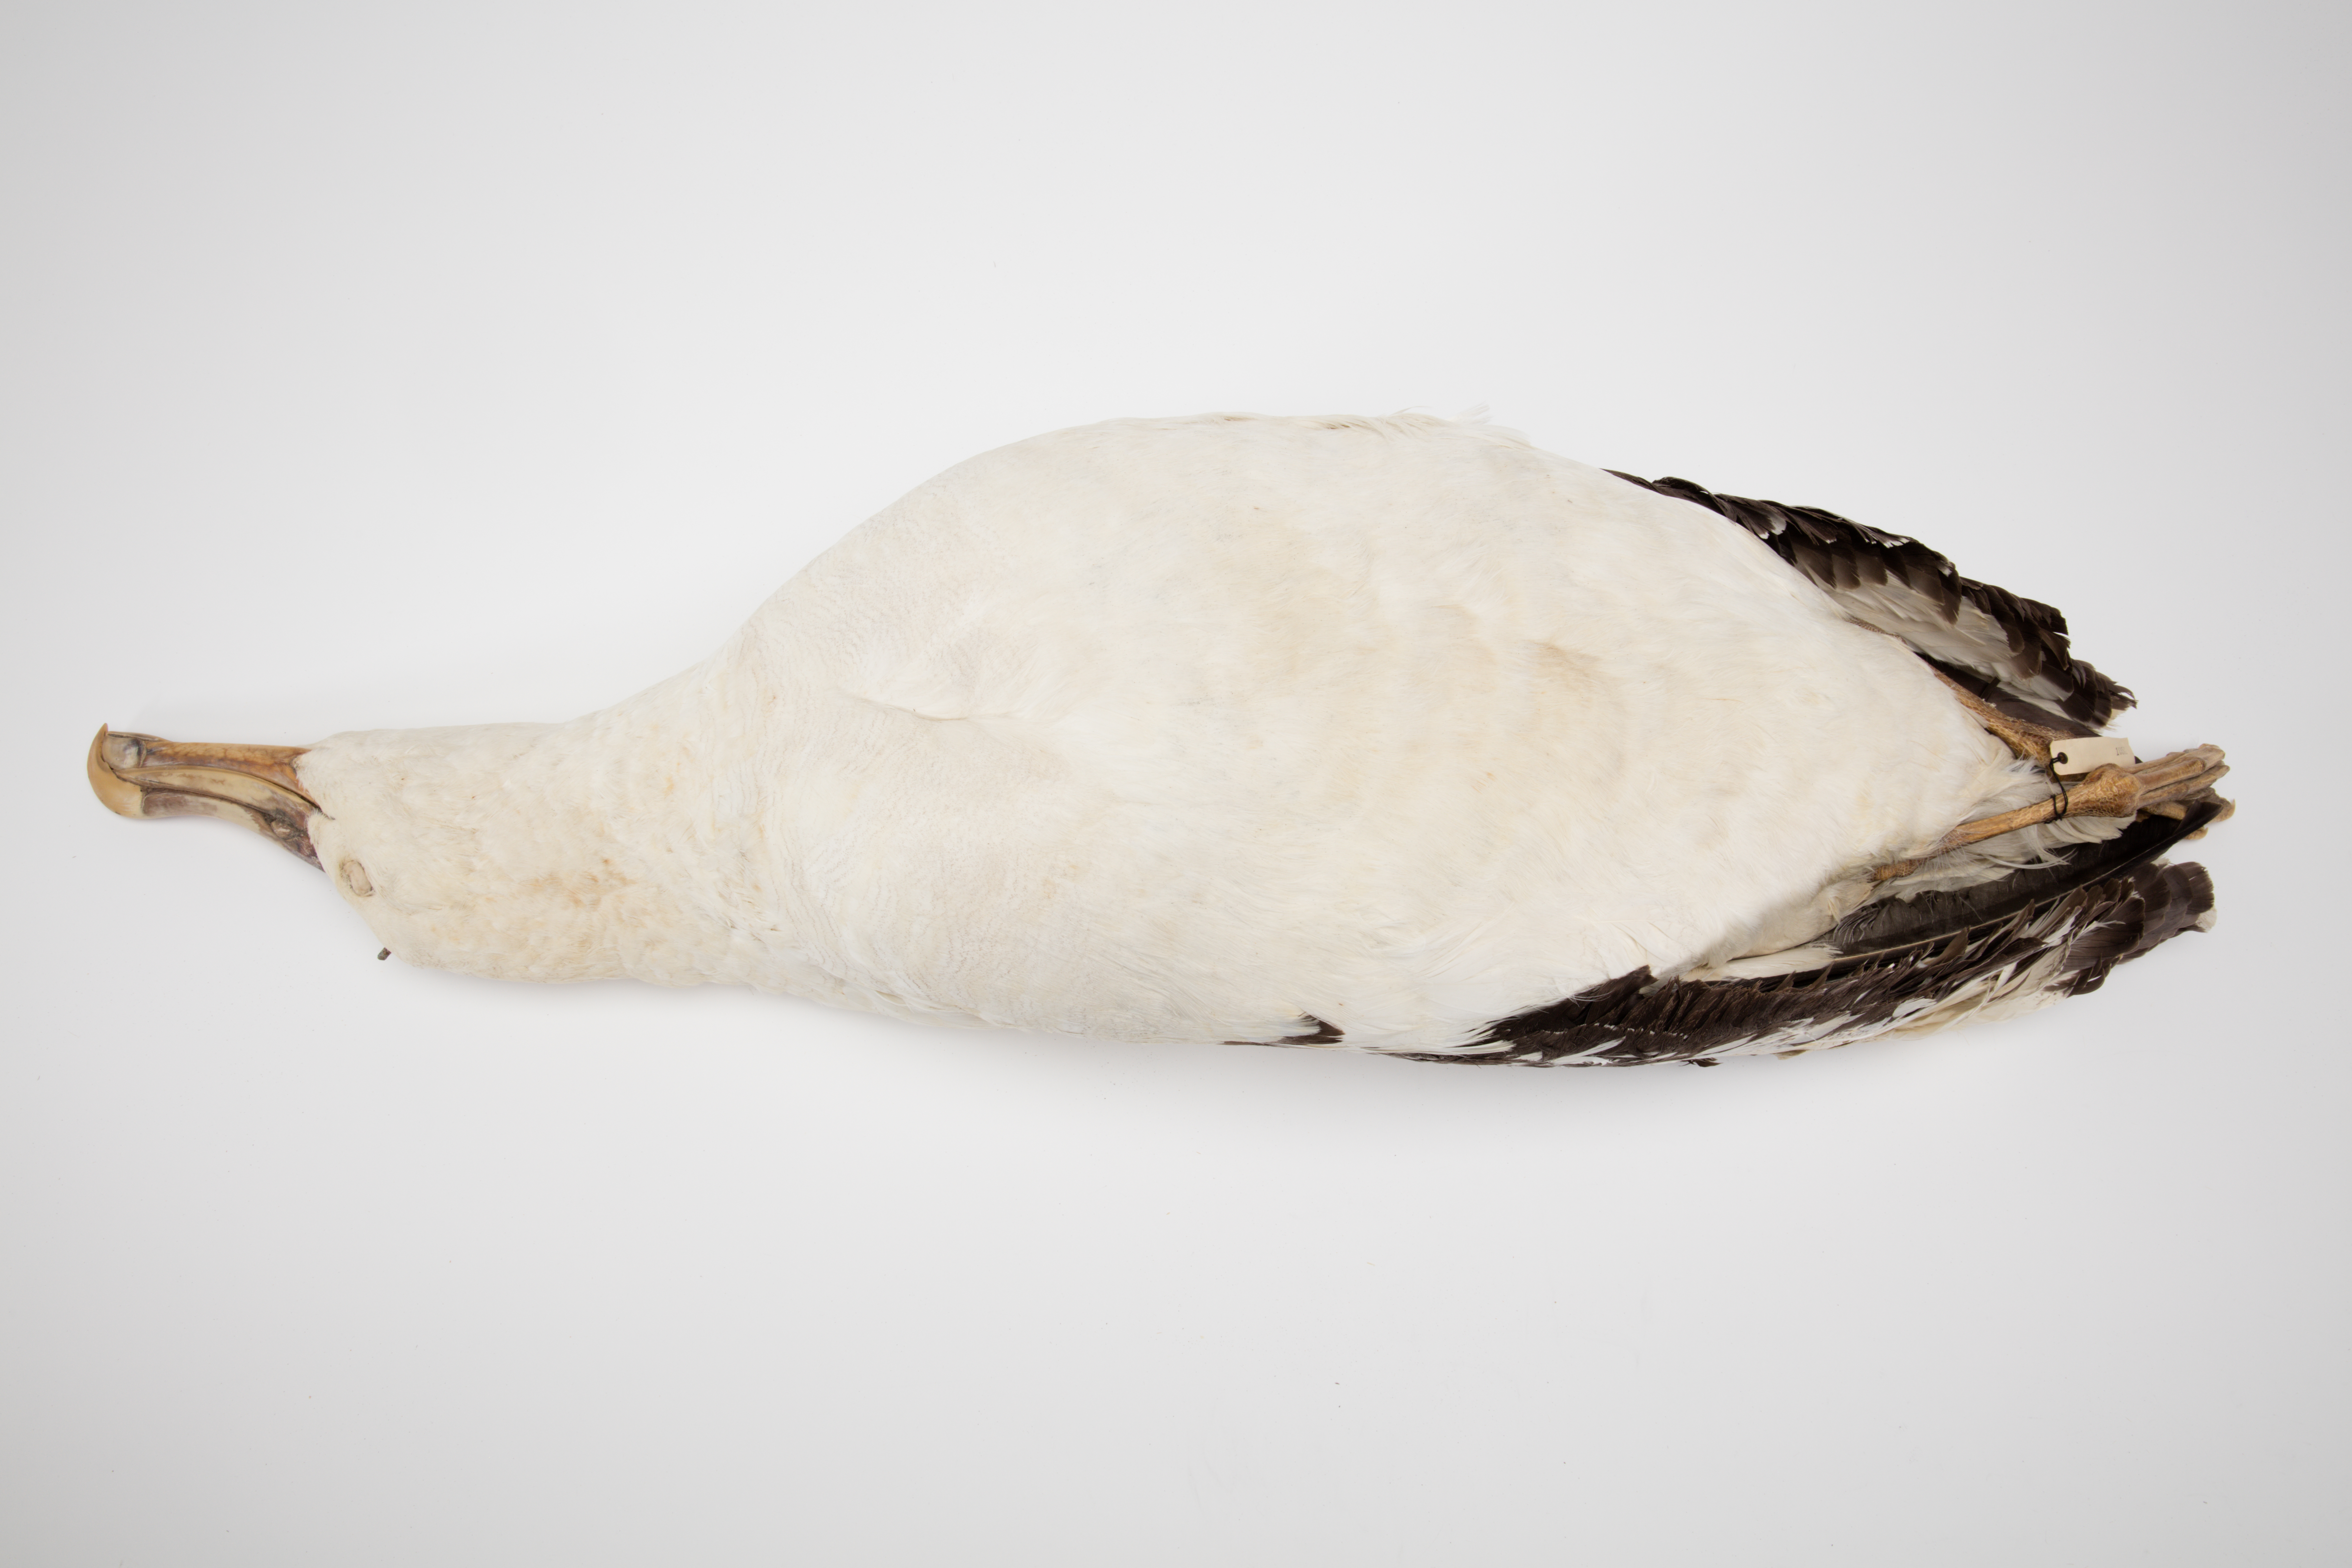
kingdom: Animalia
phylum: Chordata
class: Aves
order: Procellariiformes
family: Diomedeidae
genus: Diomedea
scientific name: Diomedea antipodensis
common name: Antipodean albatross
